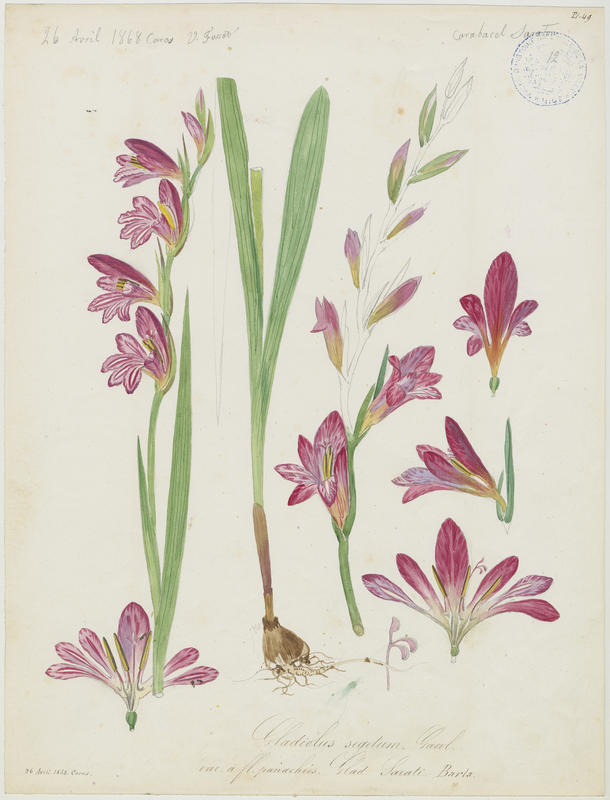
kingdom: Plantae
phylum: Tracheophyta
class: Liliopsida
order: Asparagales
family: Iridaceae
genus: Gladiolus
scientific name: Gladiolus byzantinus
